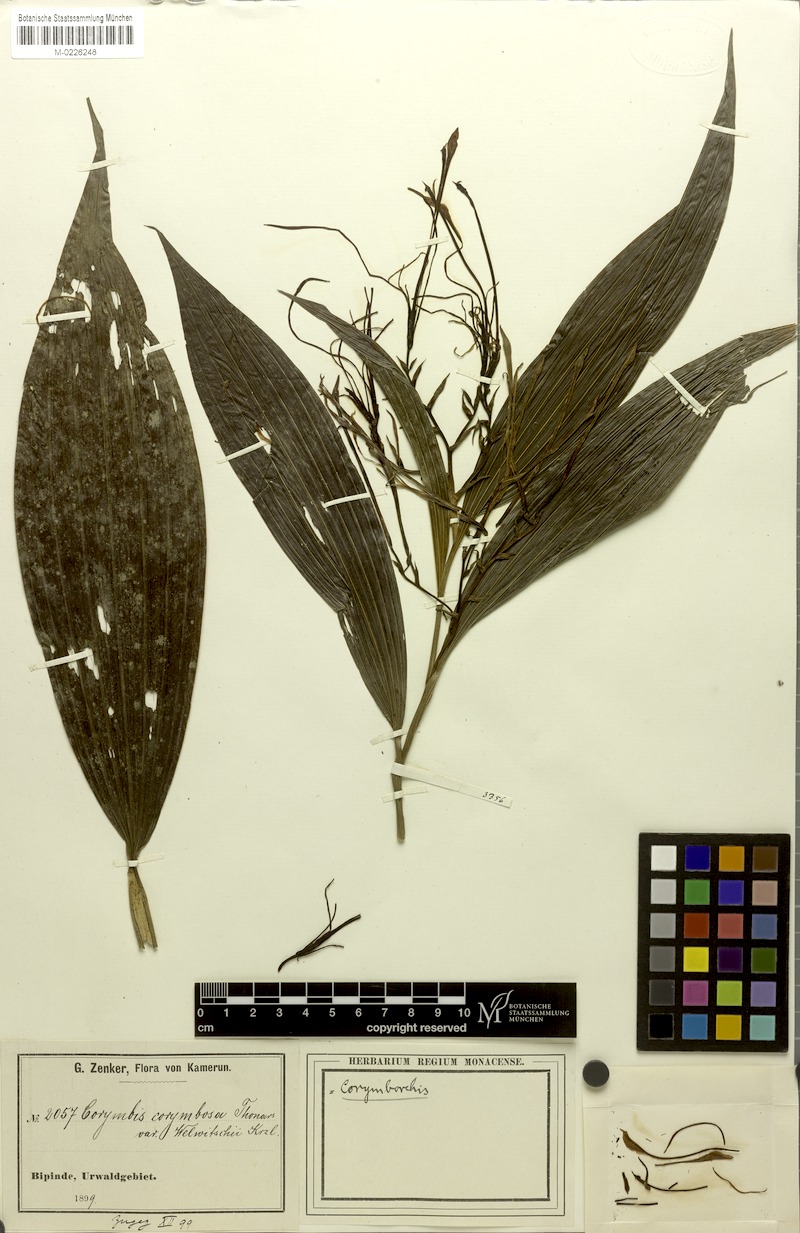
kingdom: Plantae
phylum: Tracheophyta
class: Liliopsida
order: Asparagales
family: Orchidaceae
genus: Corymborkis
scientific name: Corymborkis corymbis
